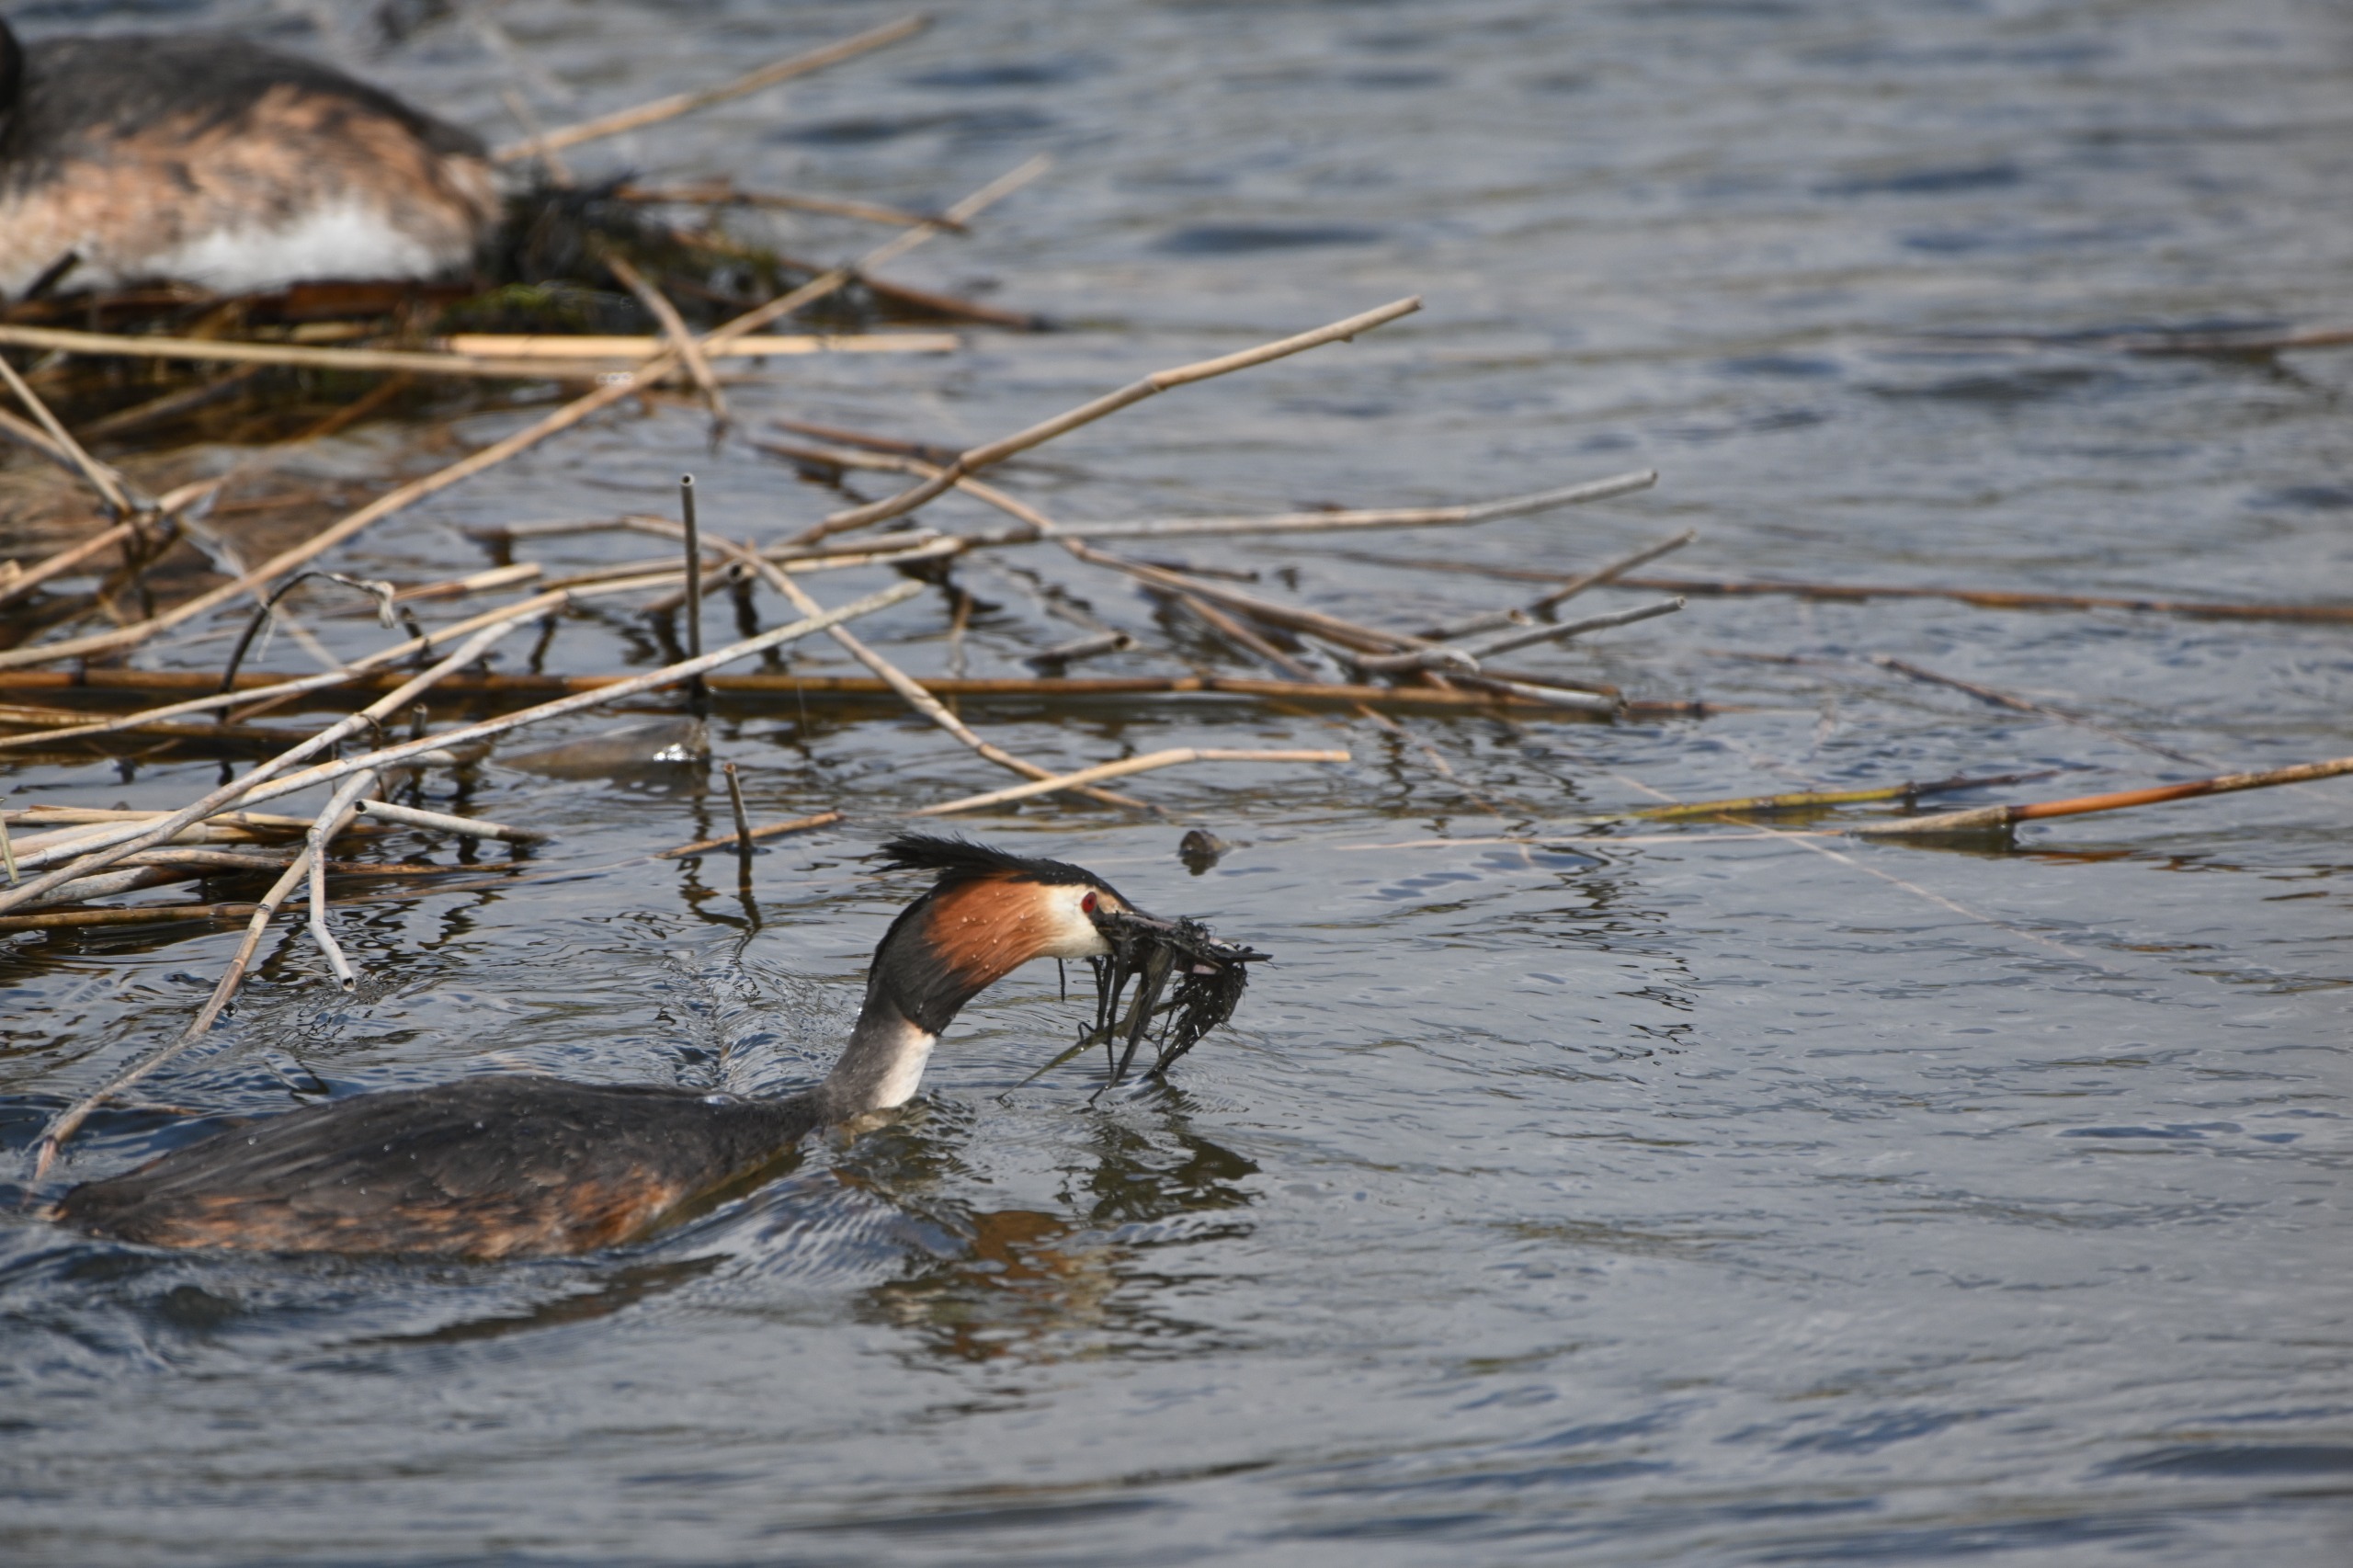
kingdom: Animalia
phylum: Chordata
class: Aves
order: Podicipediformes
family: Podicipedidae
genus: Podiceps
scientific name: Podiceps cristatus
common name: Toppet lappedykker
